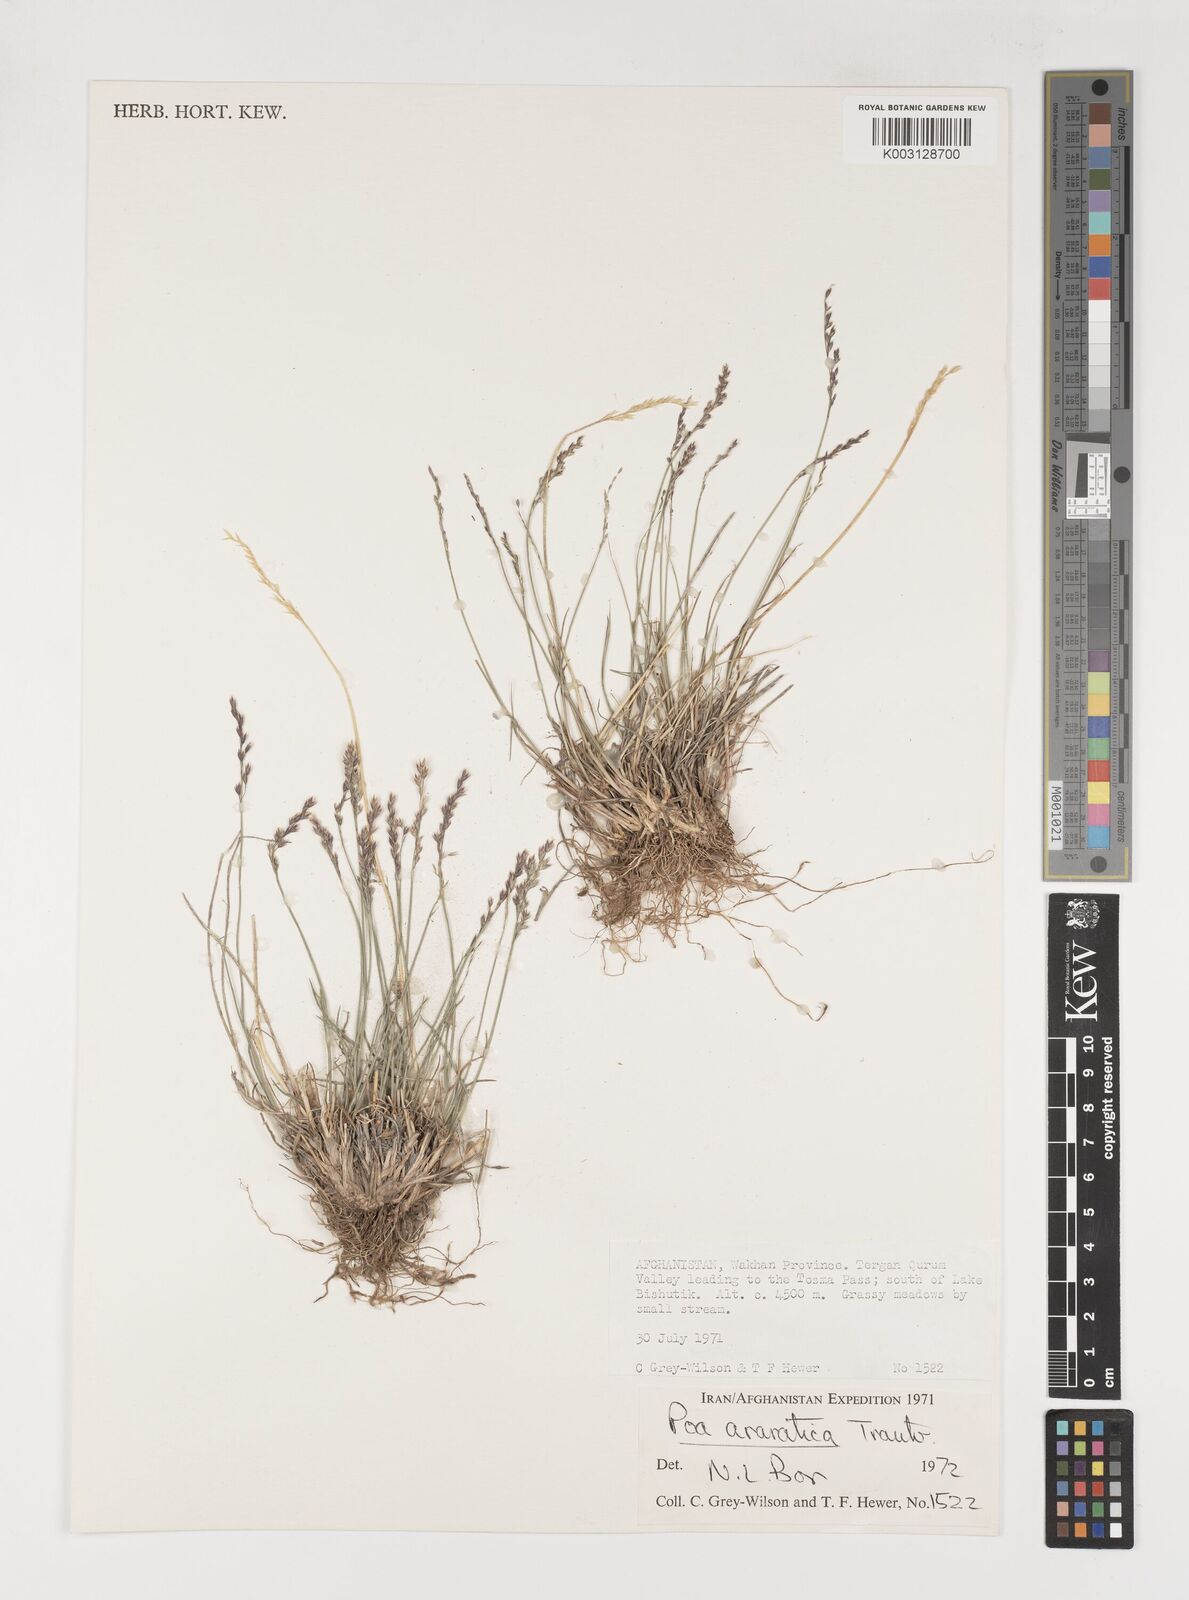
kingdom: Plantae
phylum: Tracheophyta
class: Liliopsida
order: Poales
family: Poaceae
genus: Poa
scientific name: Poa araratica
